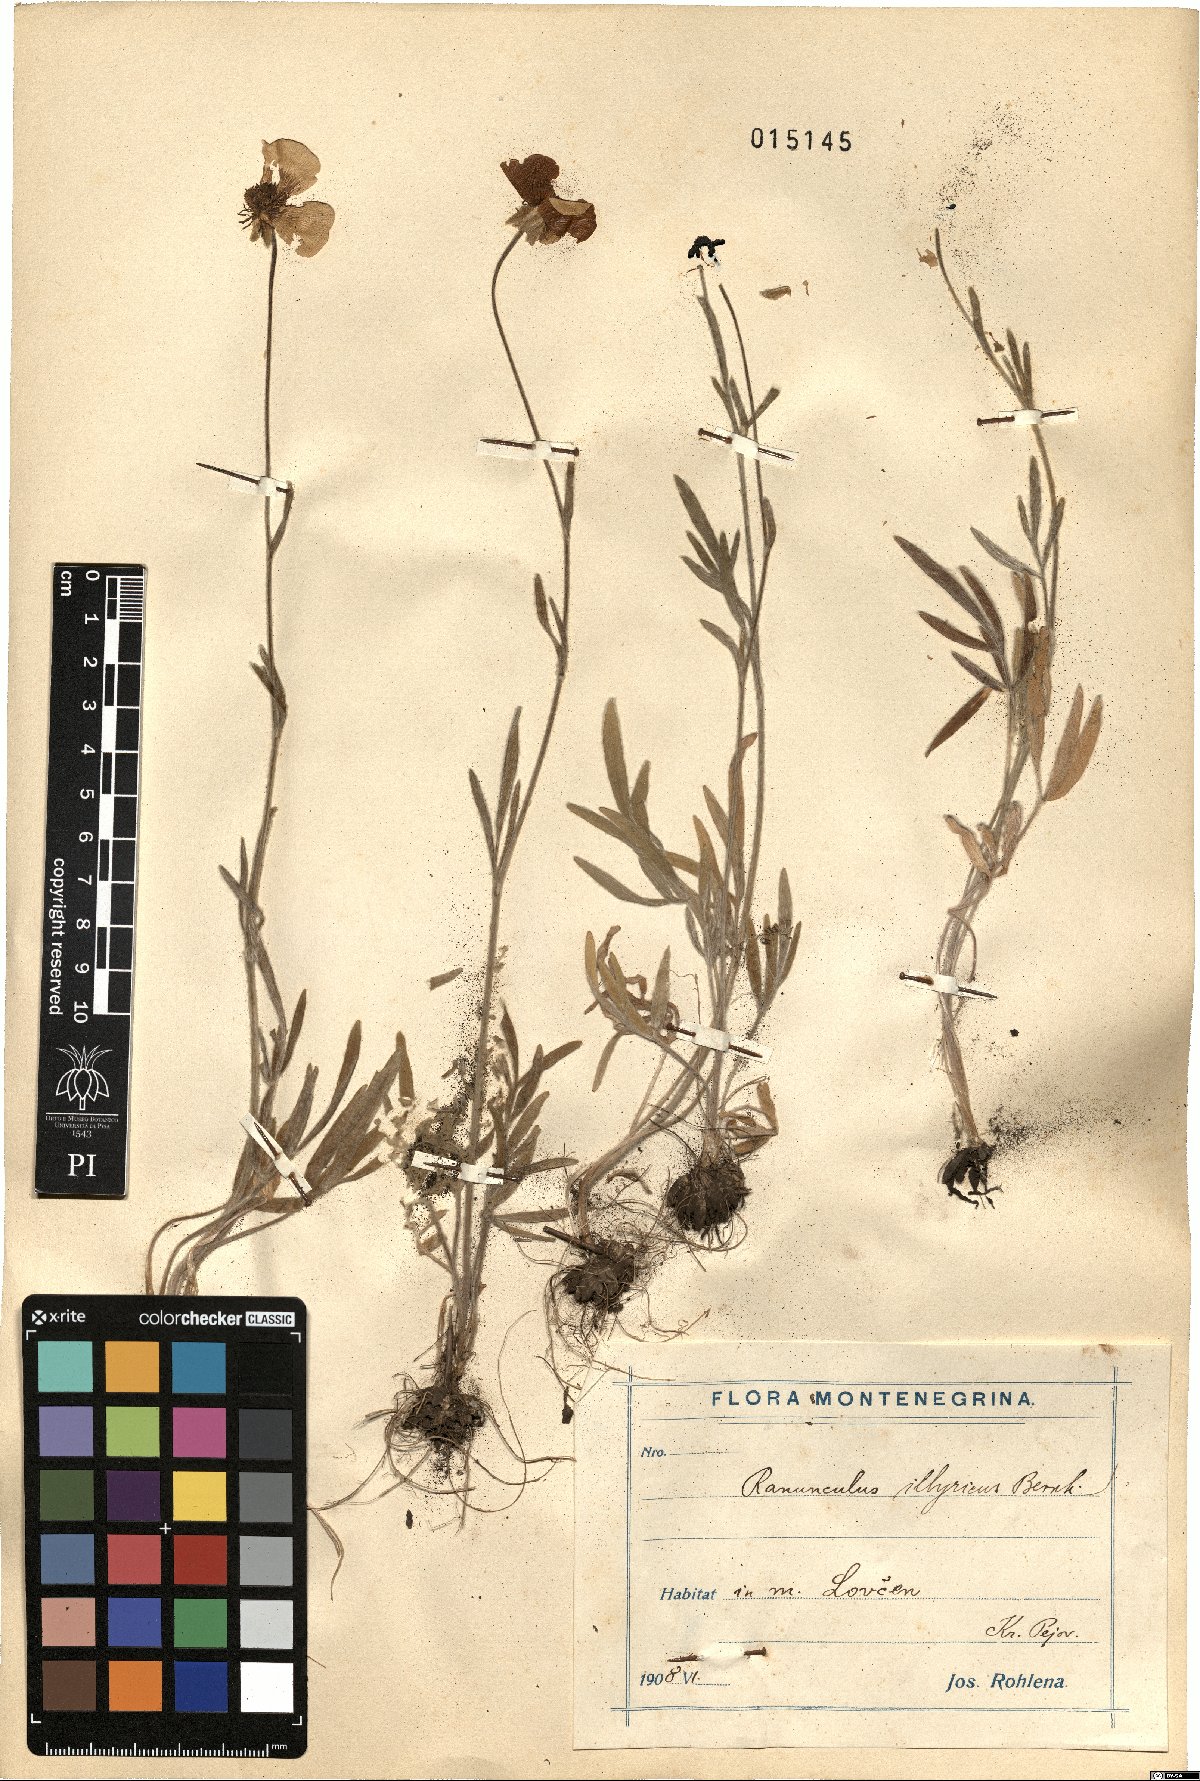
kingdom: Plantae
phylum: Tracheophyta
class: Magnoliopsida
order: Ranunculales
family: Ranunculaceae
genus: Ranunculus
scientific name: Ranunculus illyricus
